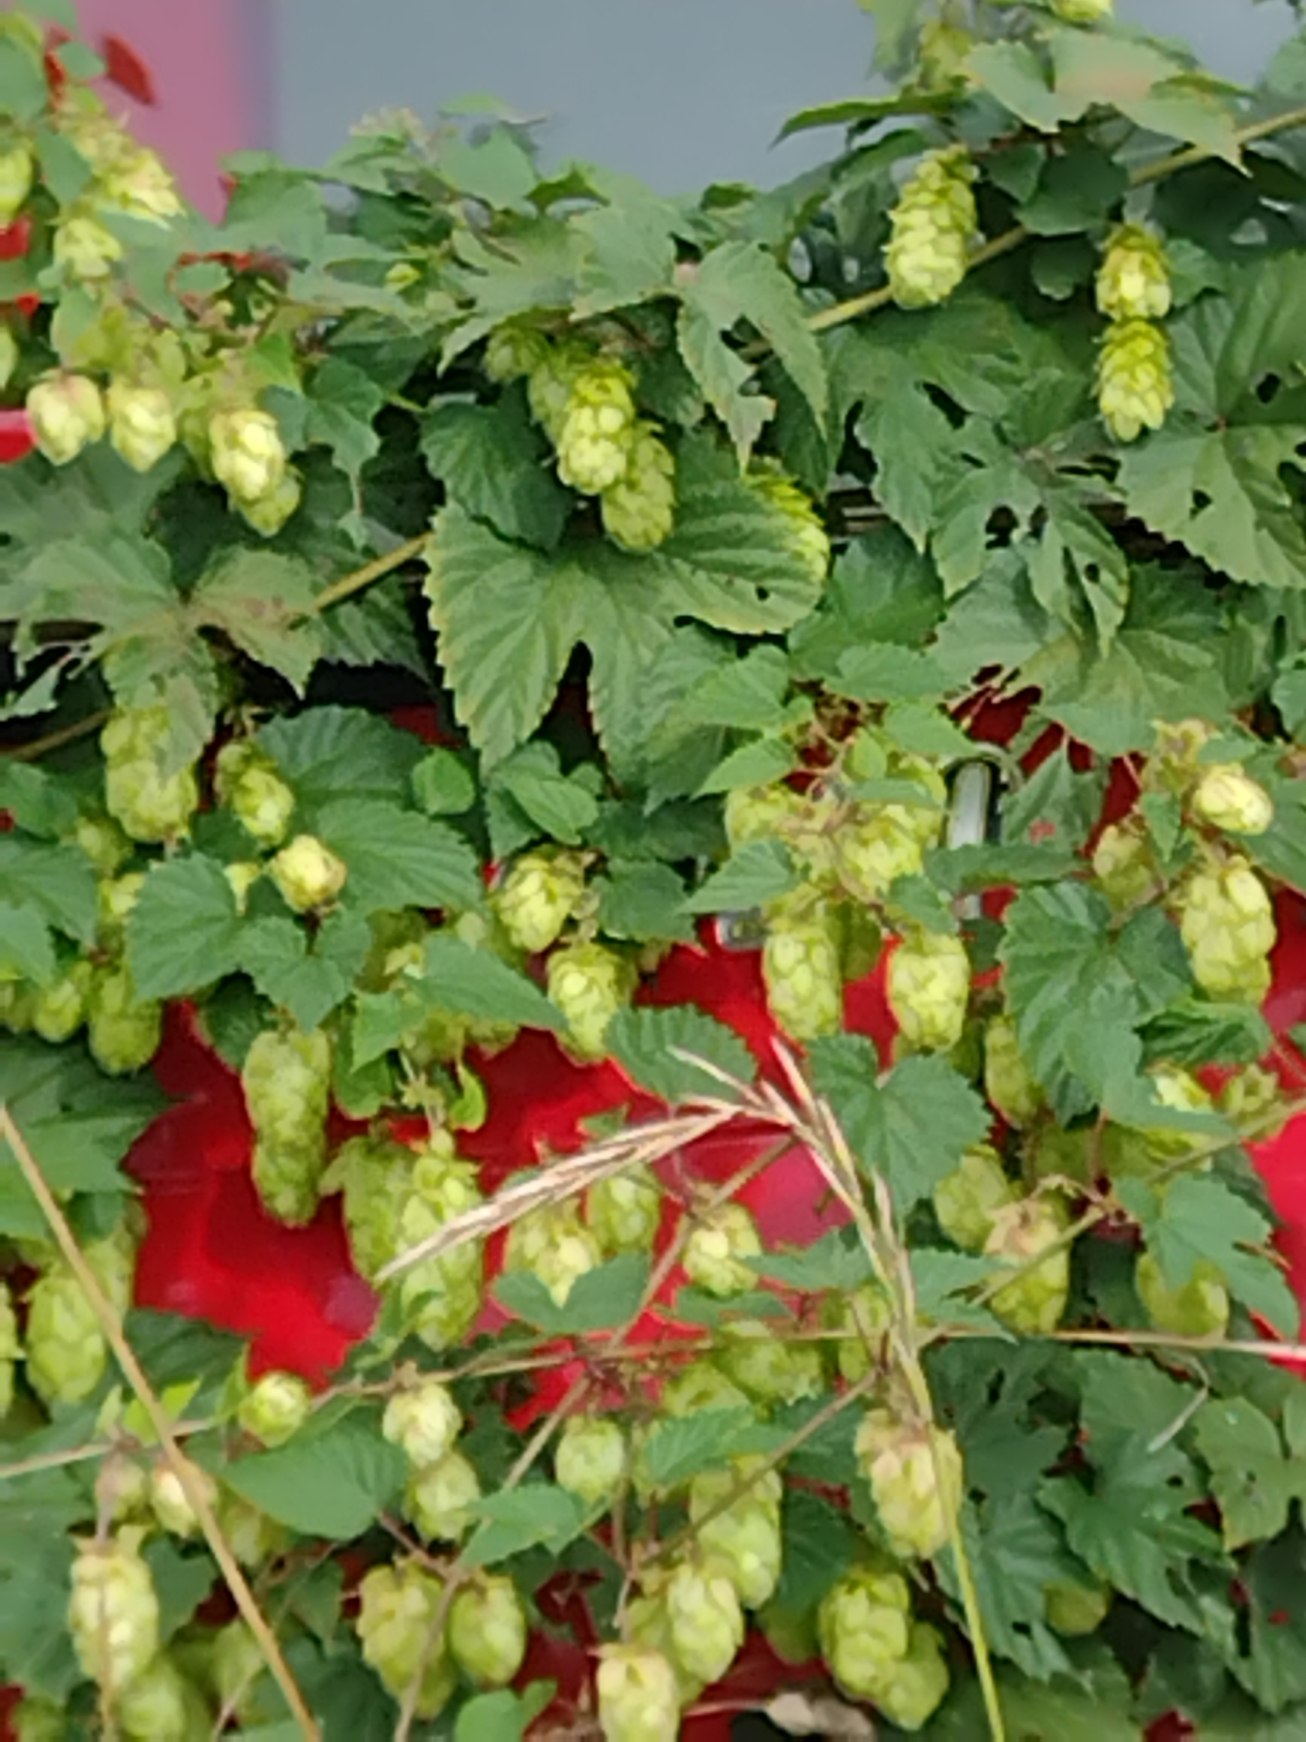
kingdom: Plantae
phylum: Tracheophyta
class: Magnoliopsida
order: Rosales
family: Cannabaceae
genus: Humulus
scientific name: Humulus lupulus
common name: Humle
